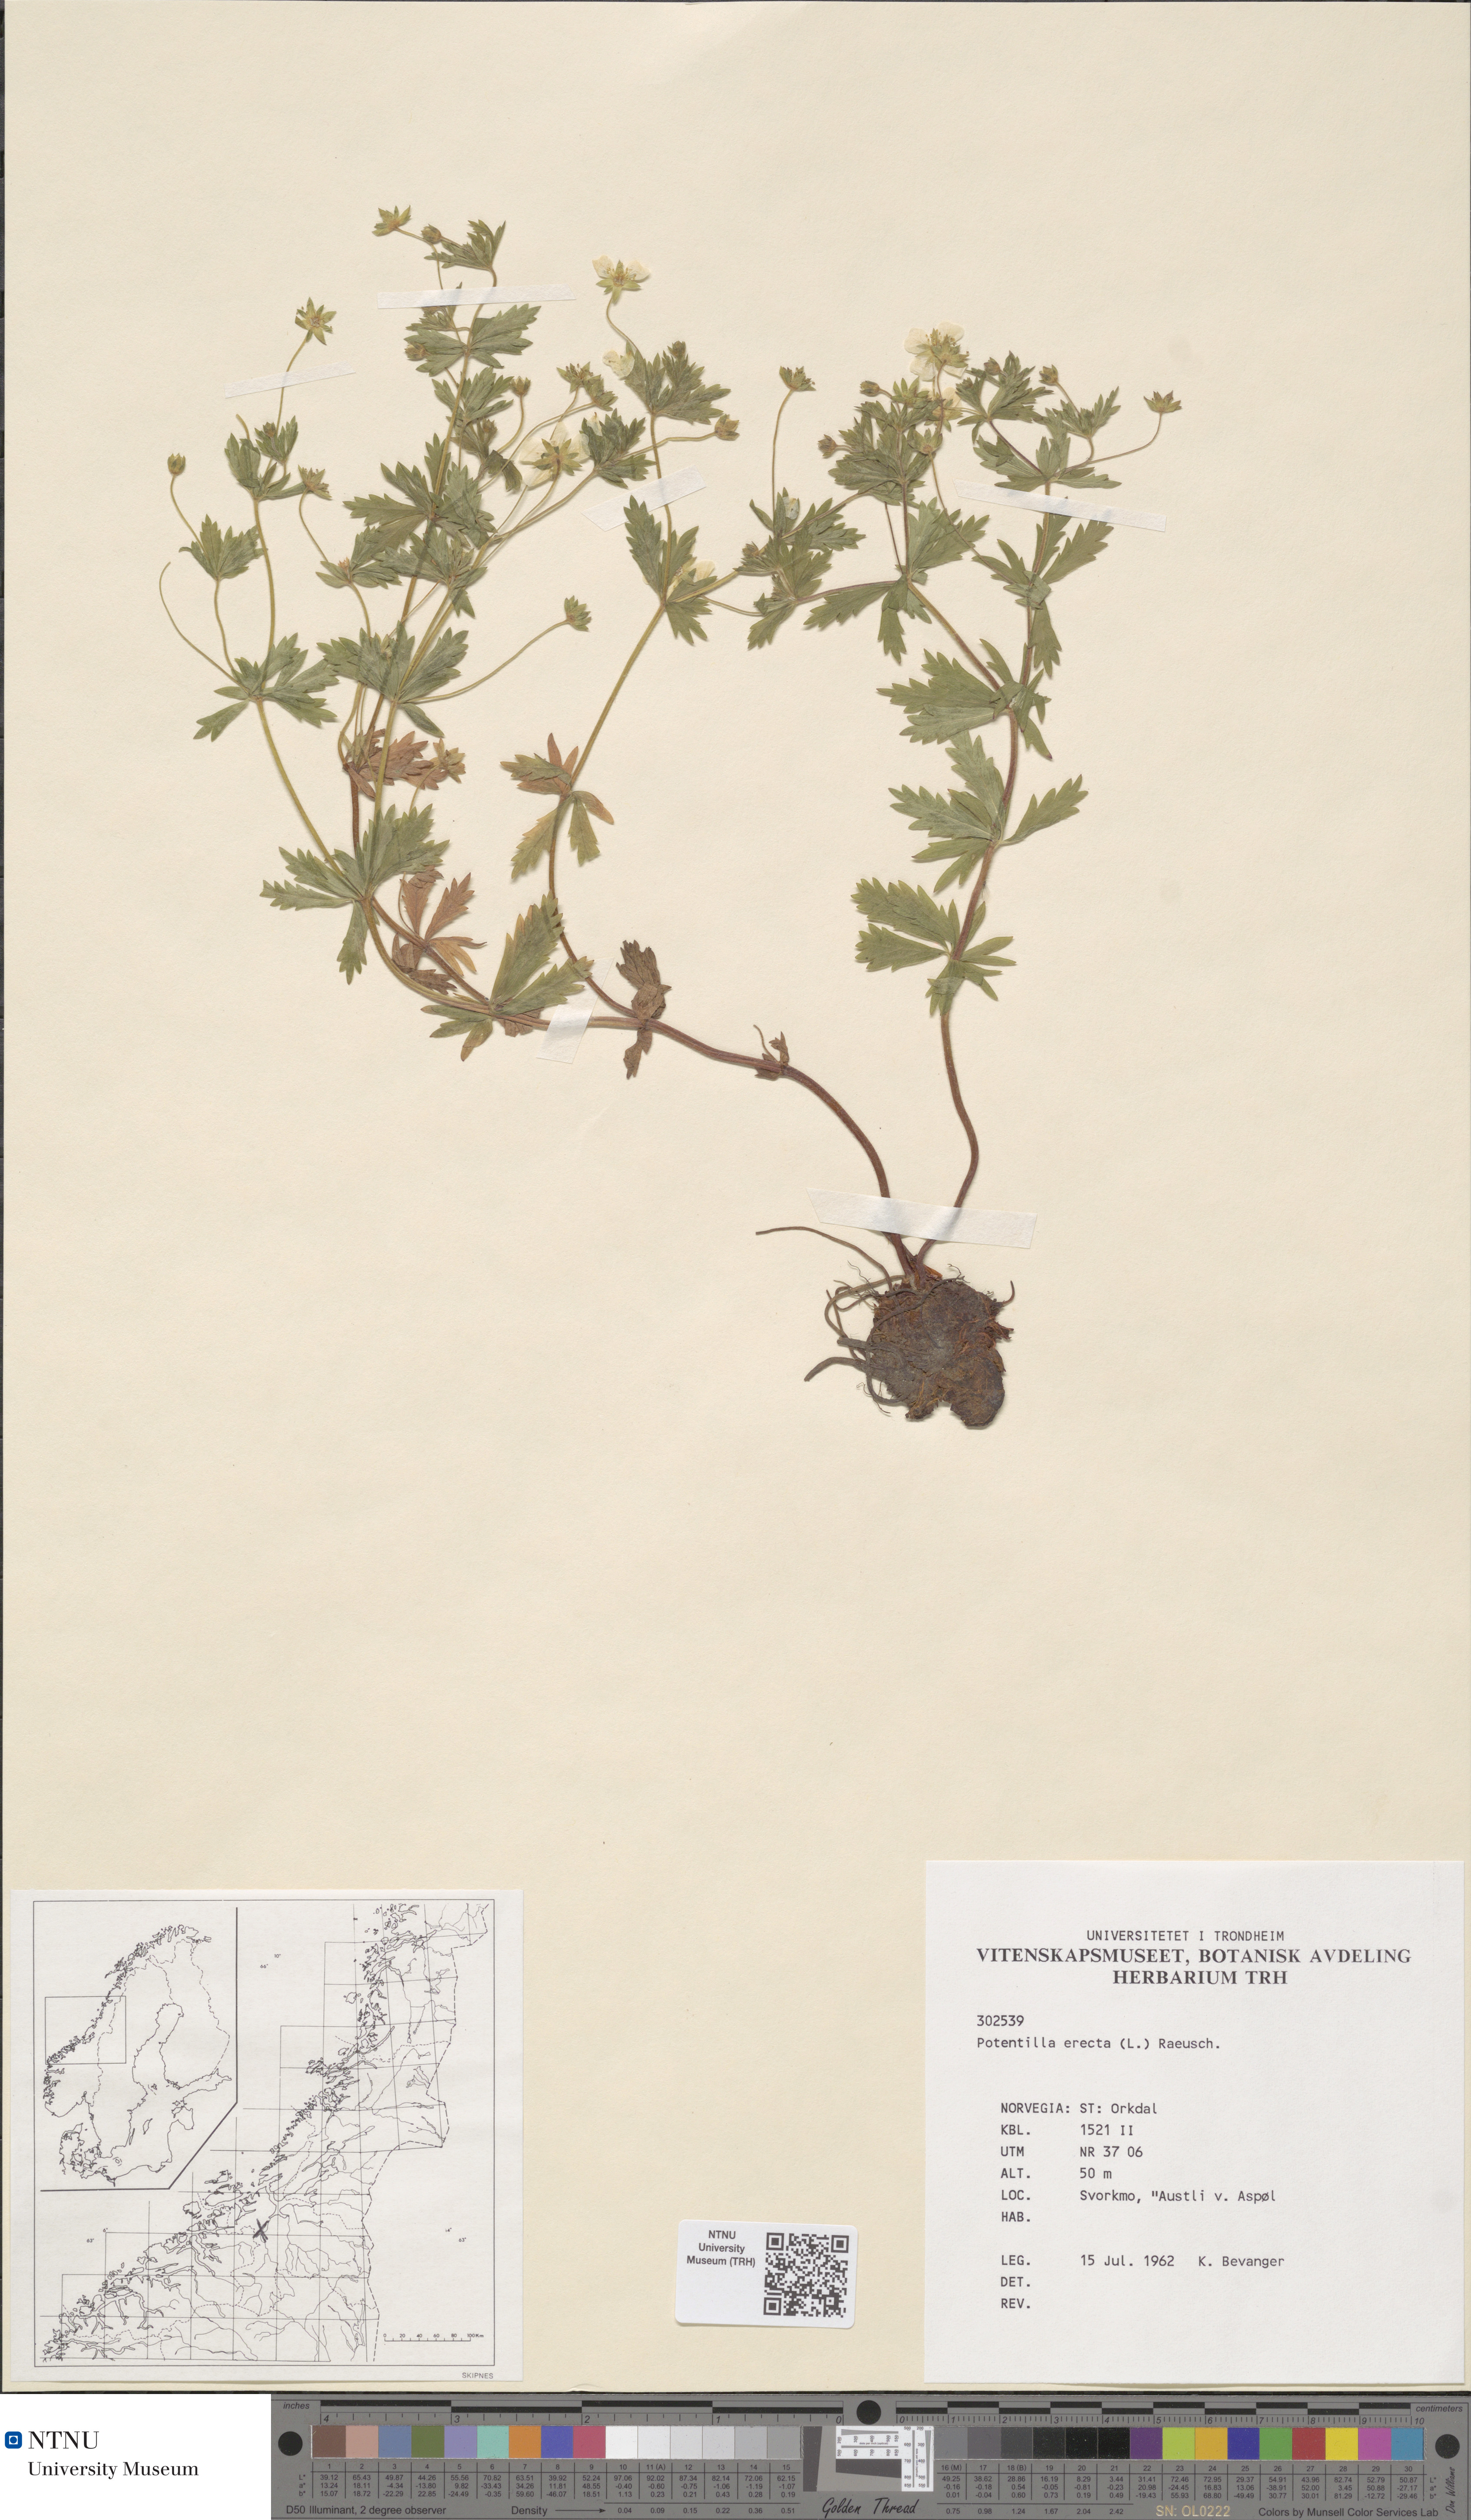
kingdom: Plantae
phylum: Tracheophyta
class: Magnoliopsida
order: Rosales
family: Rosaceae
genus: Potentilla
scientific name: Potentilla erecta
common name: Tormentil
